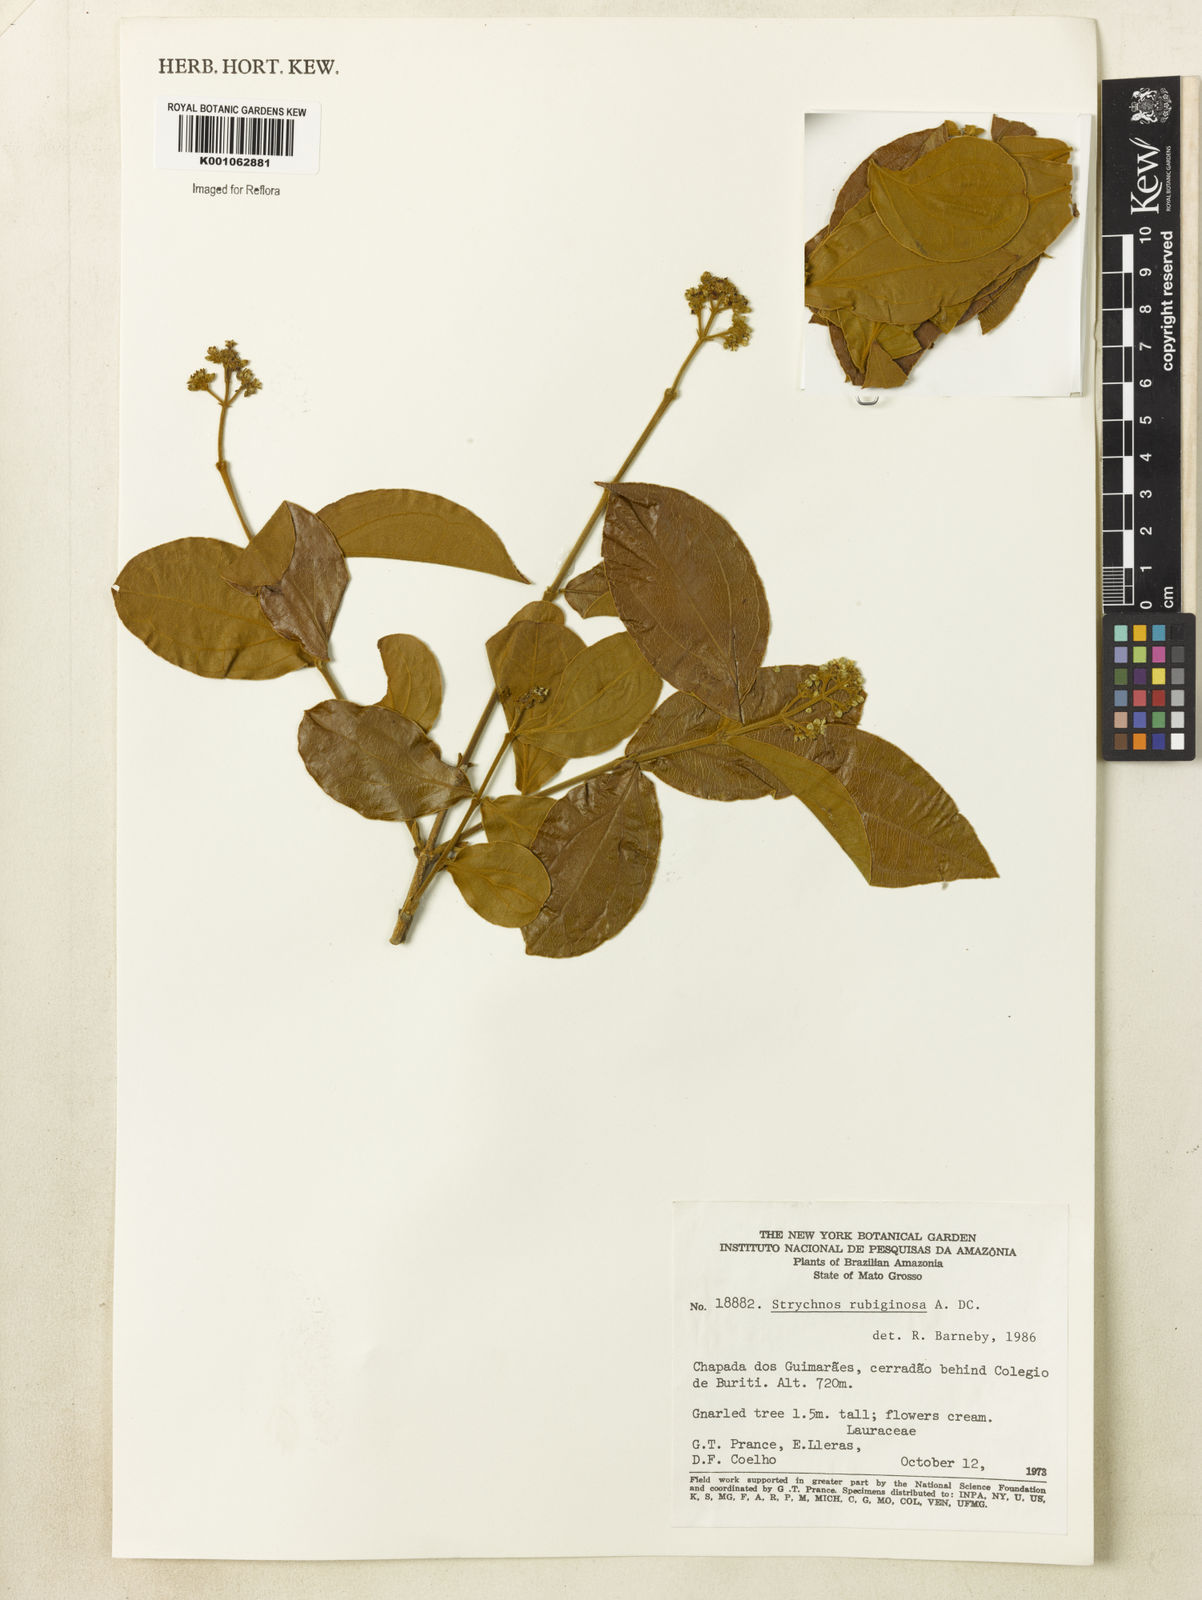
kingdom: Plantae
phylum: Tracheophyta
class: Magnoliopsida
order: Gentianales
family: Loganiaceae
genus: Strychnos
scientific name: Strychnos rubiginosa
